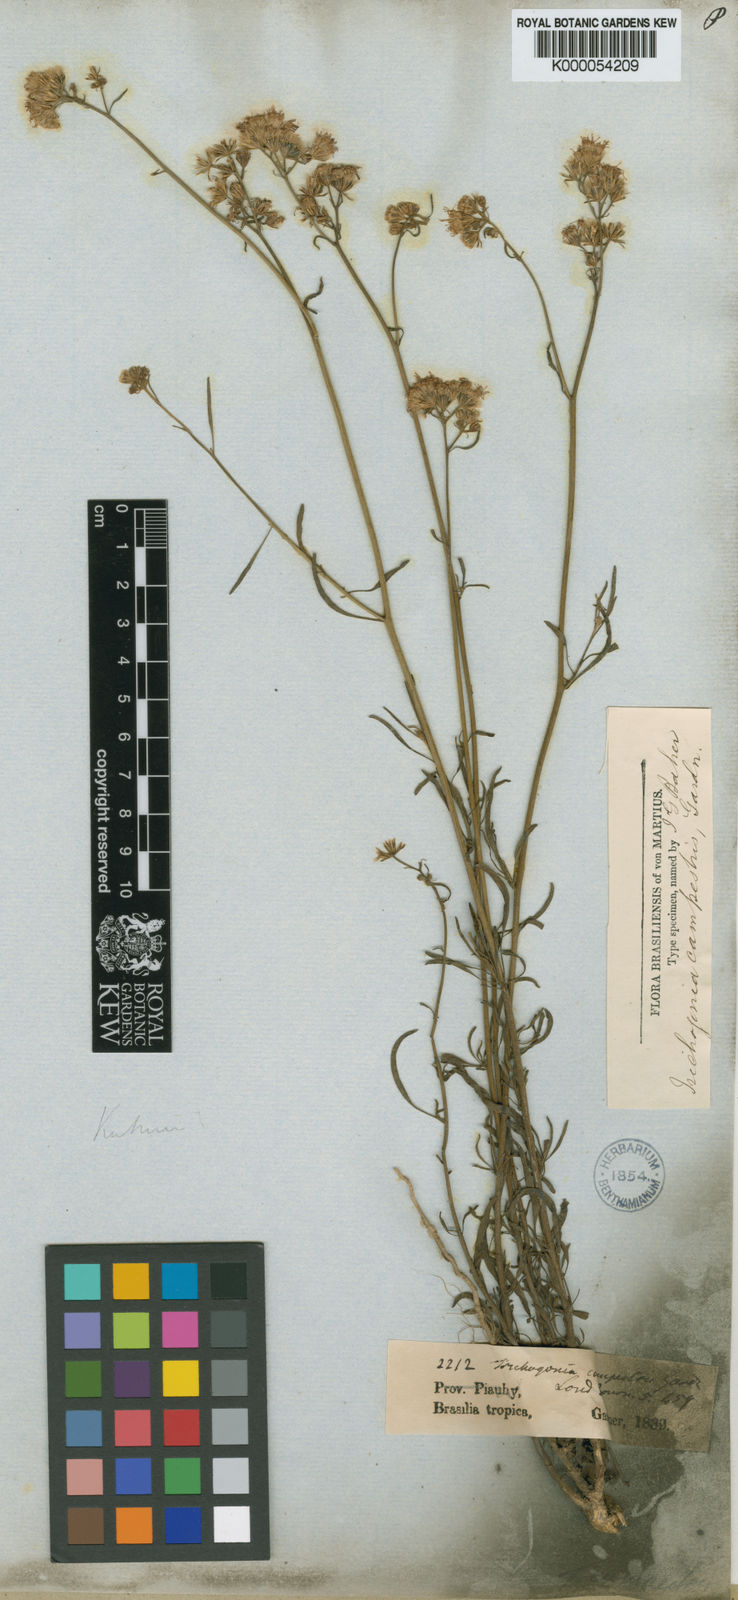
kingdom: Plantae
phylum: Tracheophyta
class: Magnoliopsida
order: Asterales
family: Asteraceae
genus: Trichogonia
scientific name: Trichogonia campestris
